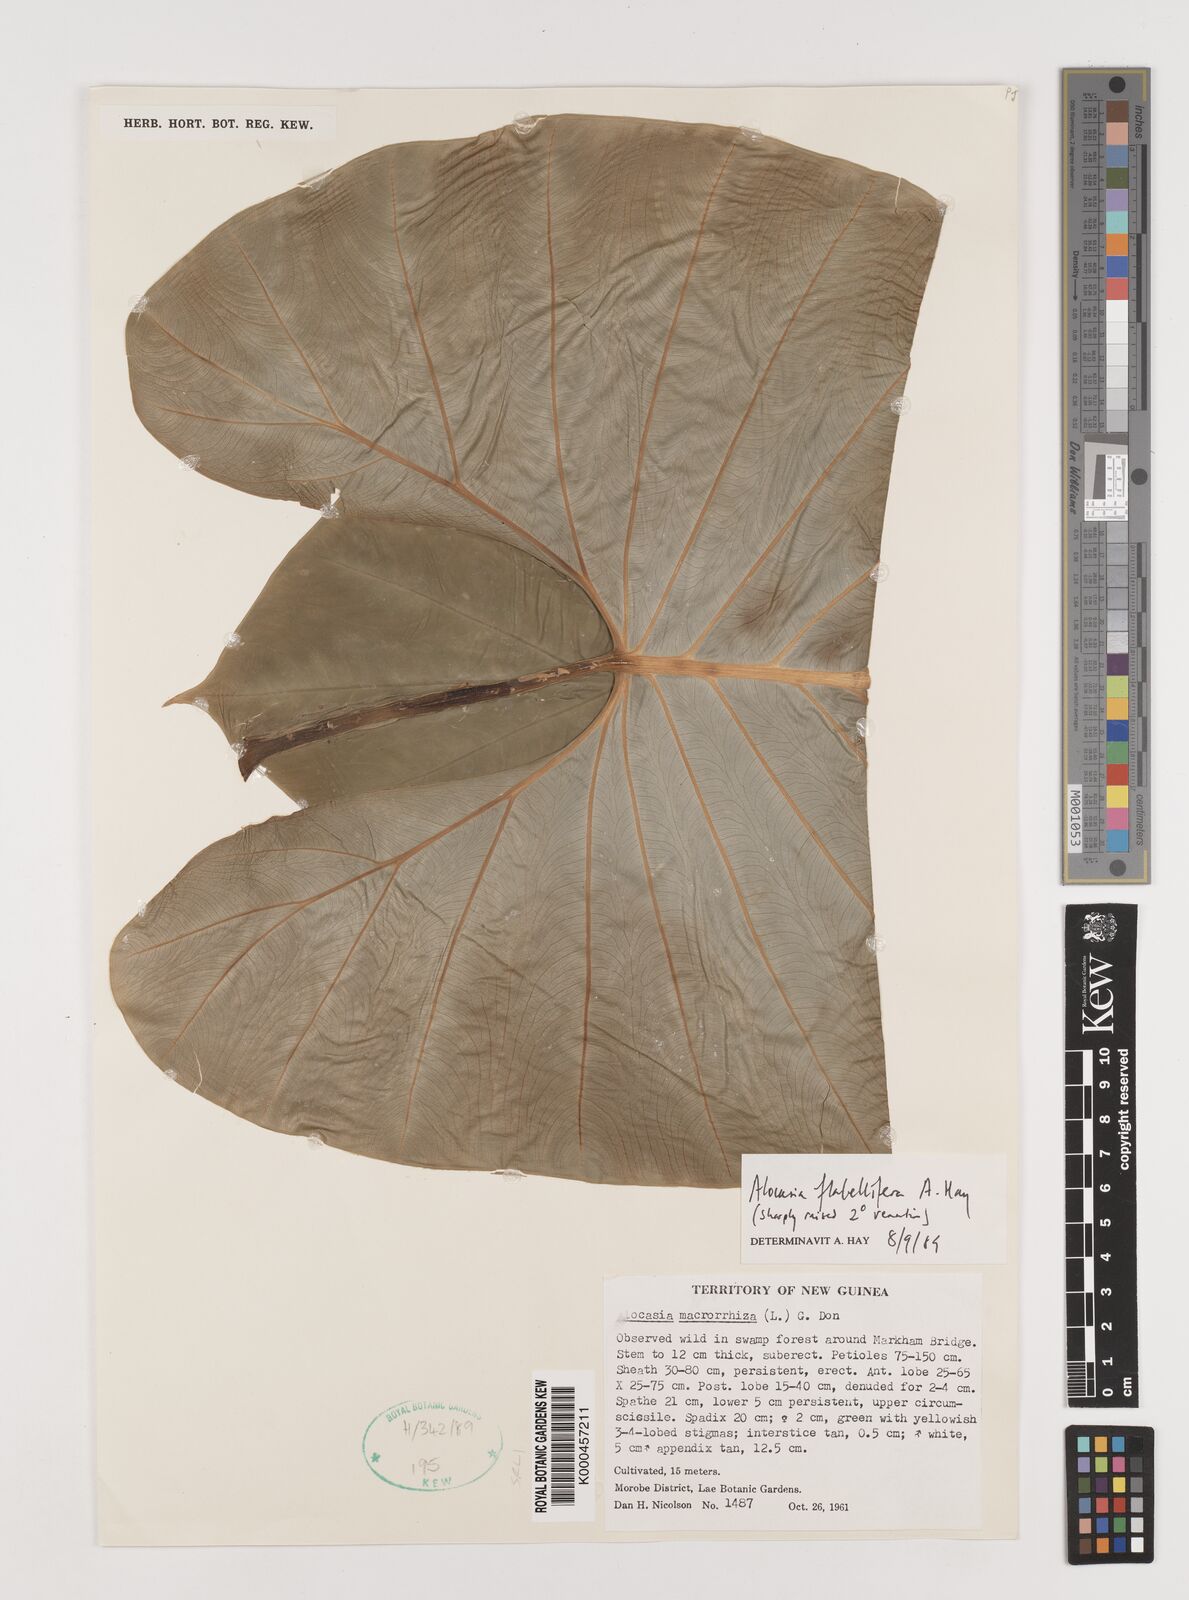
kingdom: Plantae
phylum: Tracheophyta
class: Liliopsida
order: Alismatales
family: Araceae
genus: Alocasia
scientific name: Alocasia flabellifera
